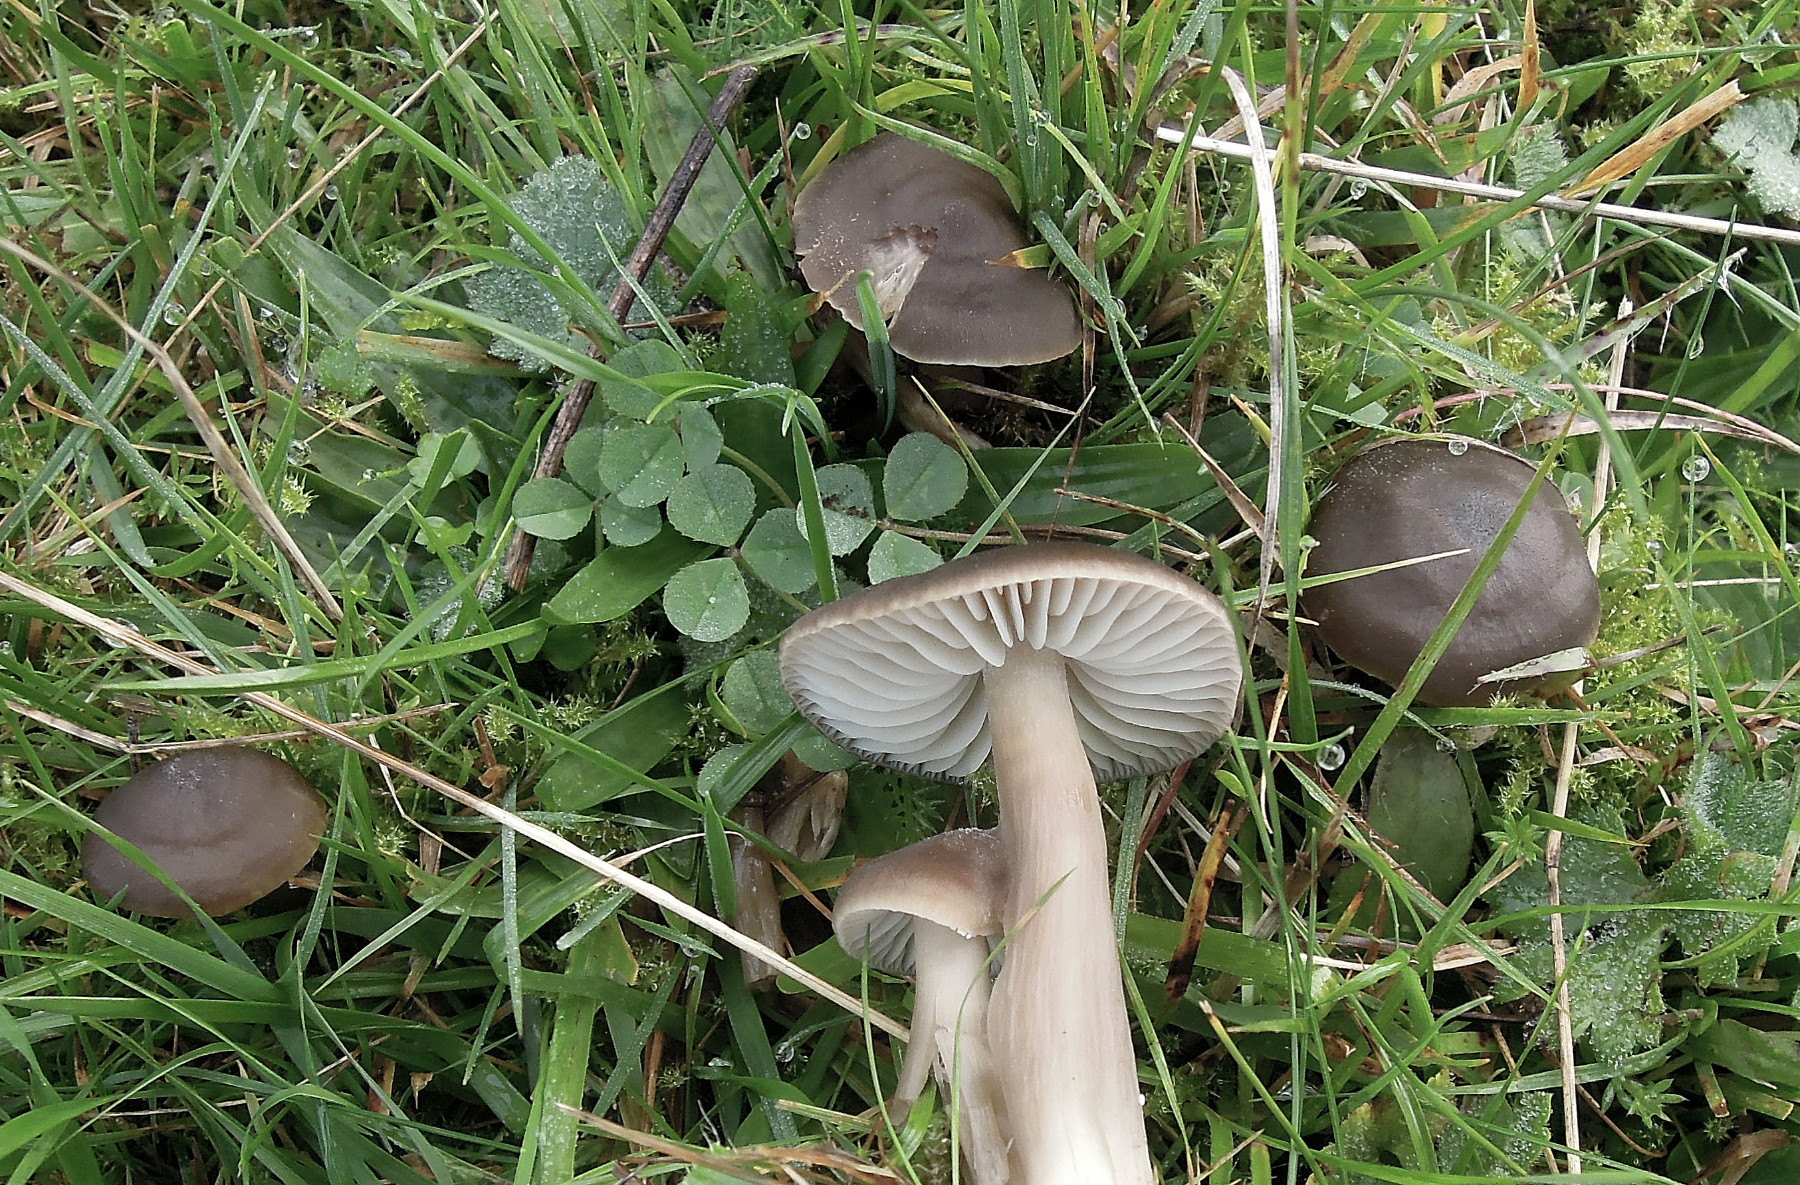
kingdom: Fungi
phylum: Basidiomycota
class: Agaricomycetes
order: Agaricales
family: Hygrophoraceae
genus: Neohygrocybe
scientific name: Neohygrocybe nitrata
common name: stinkende vokshat
